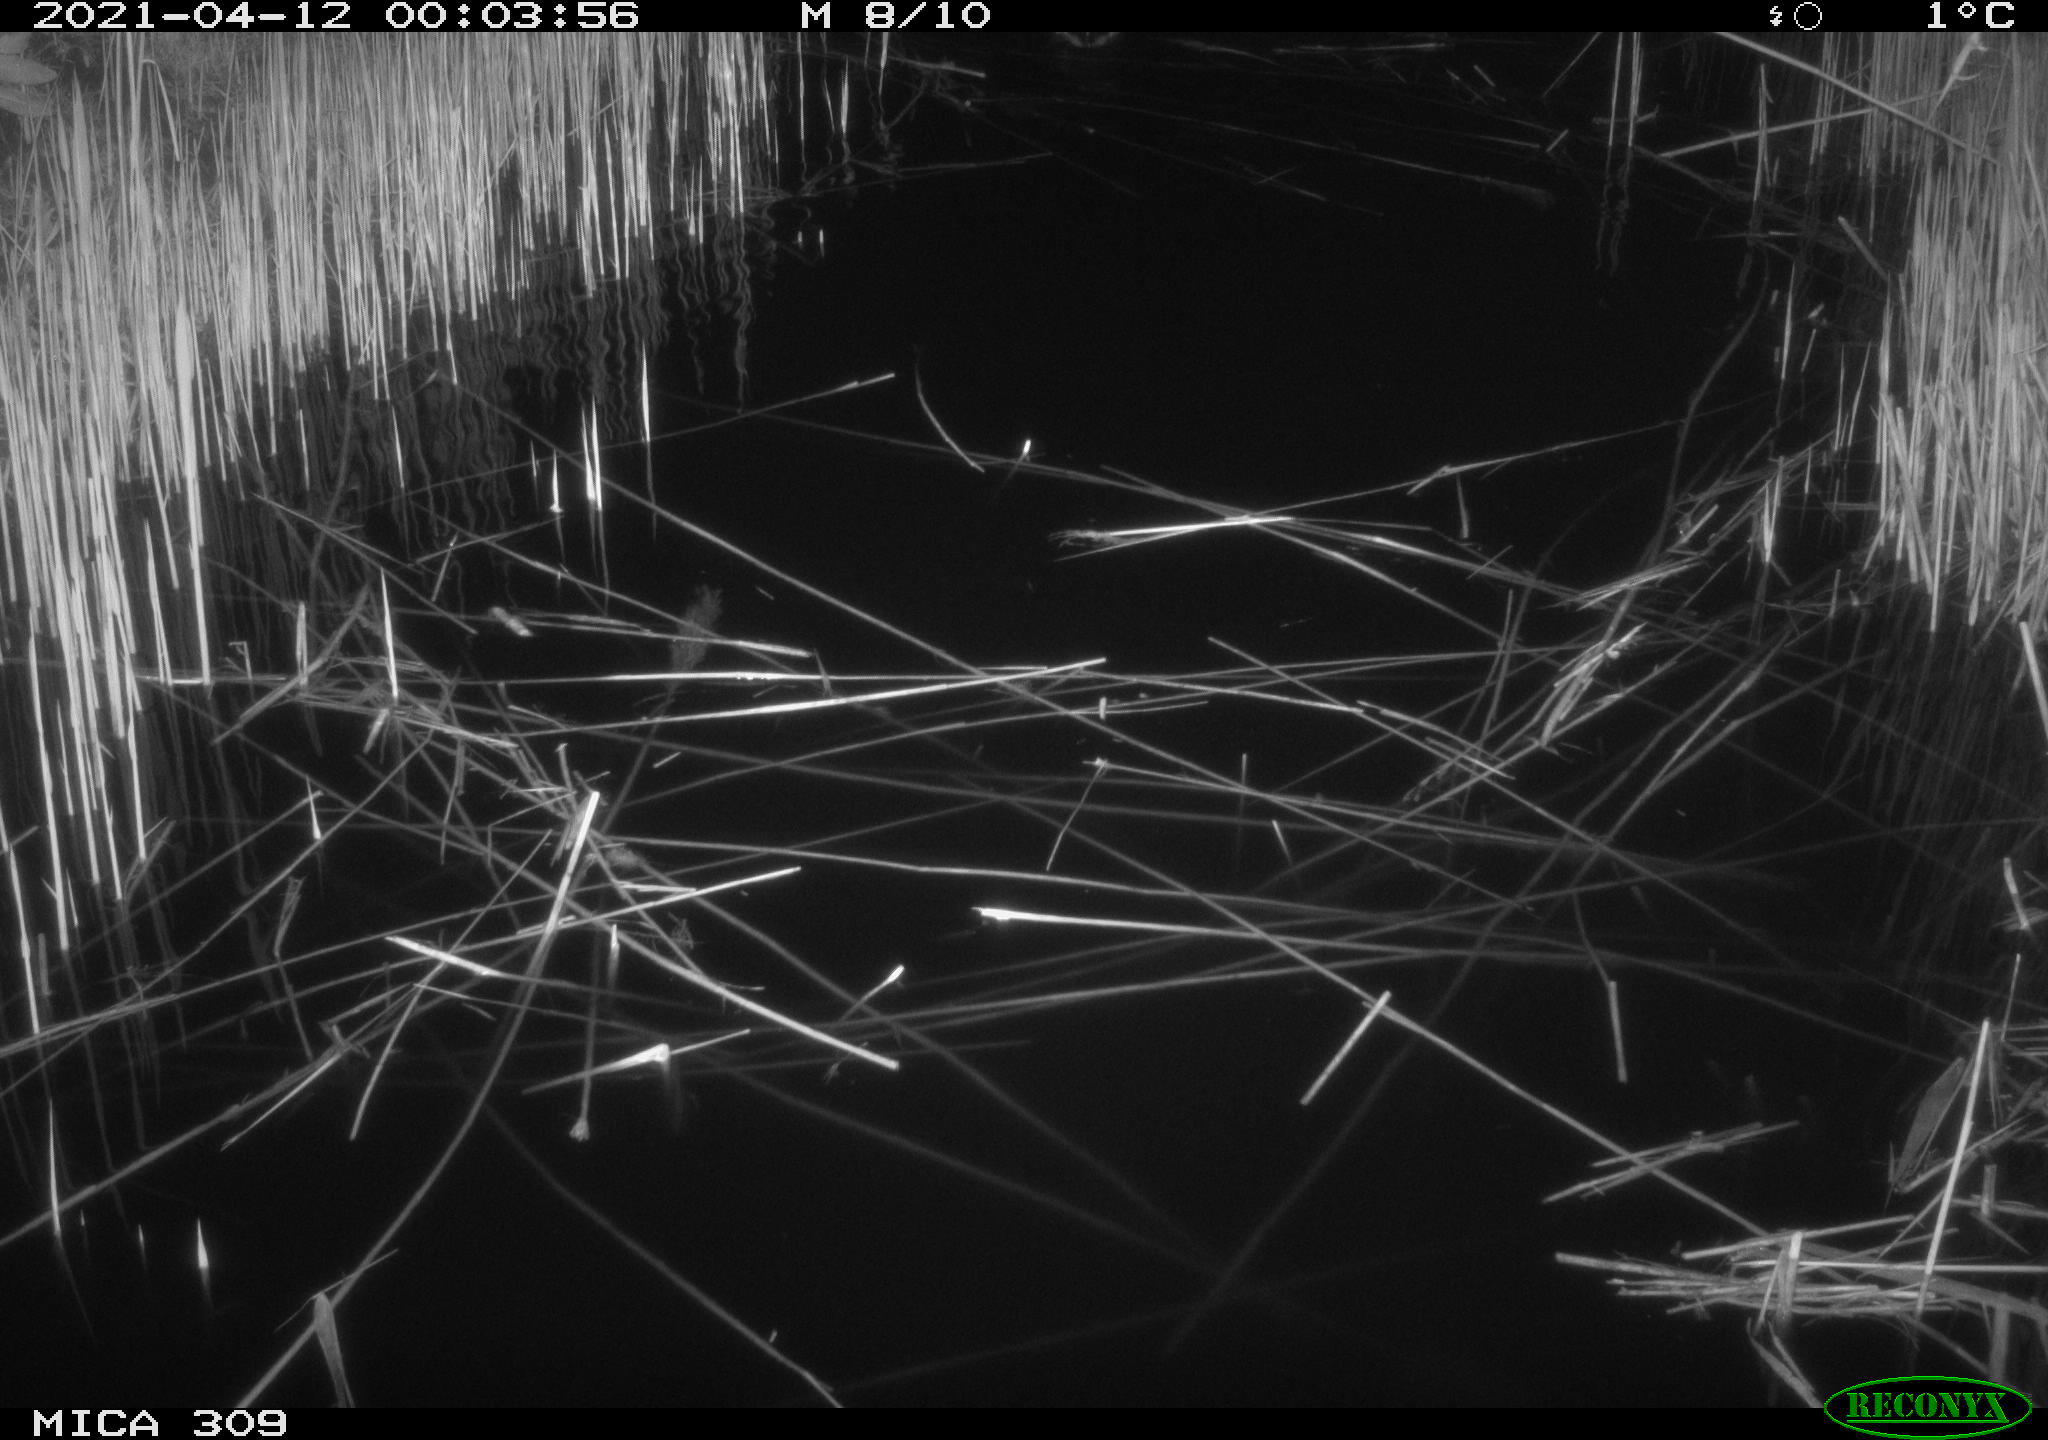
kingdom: Animalia
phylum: Chordata
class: Aves
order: Anseriformes
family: Anatidae
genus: Anas
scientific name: Anas platyrhynchos
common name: Mallard
